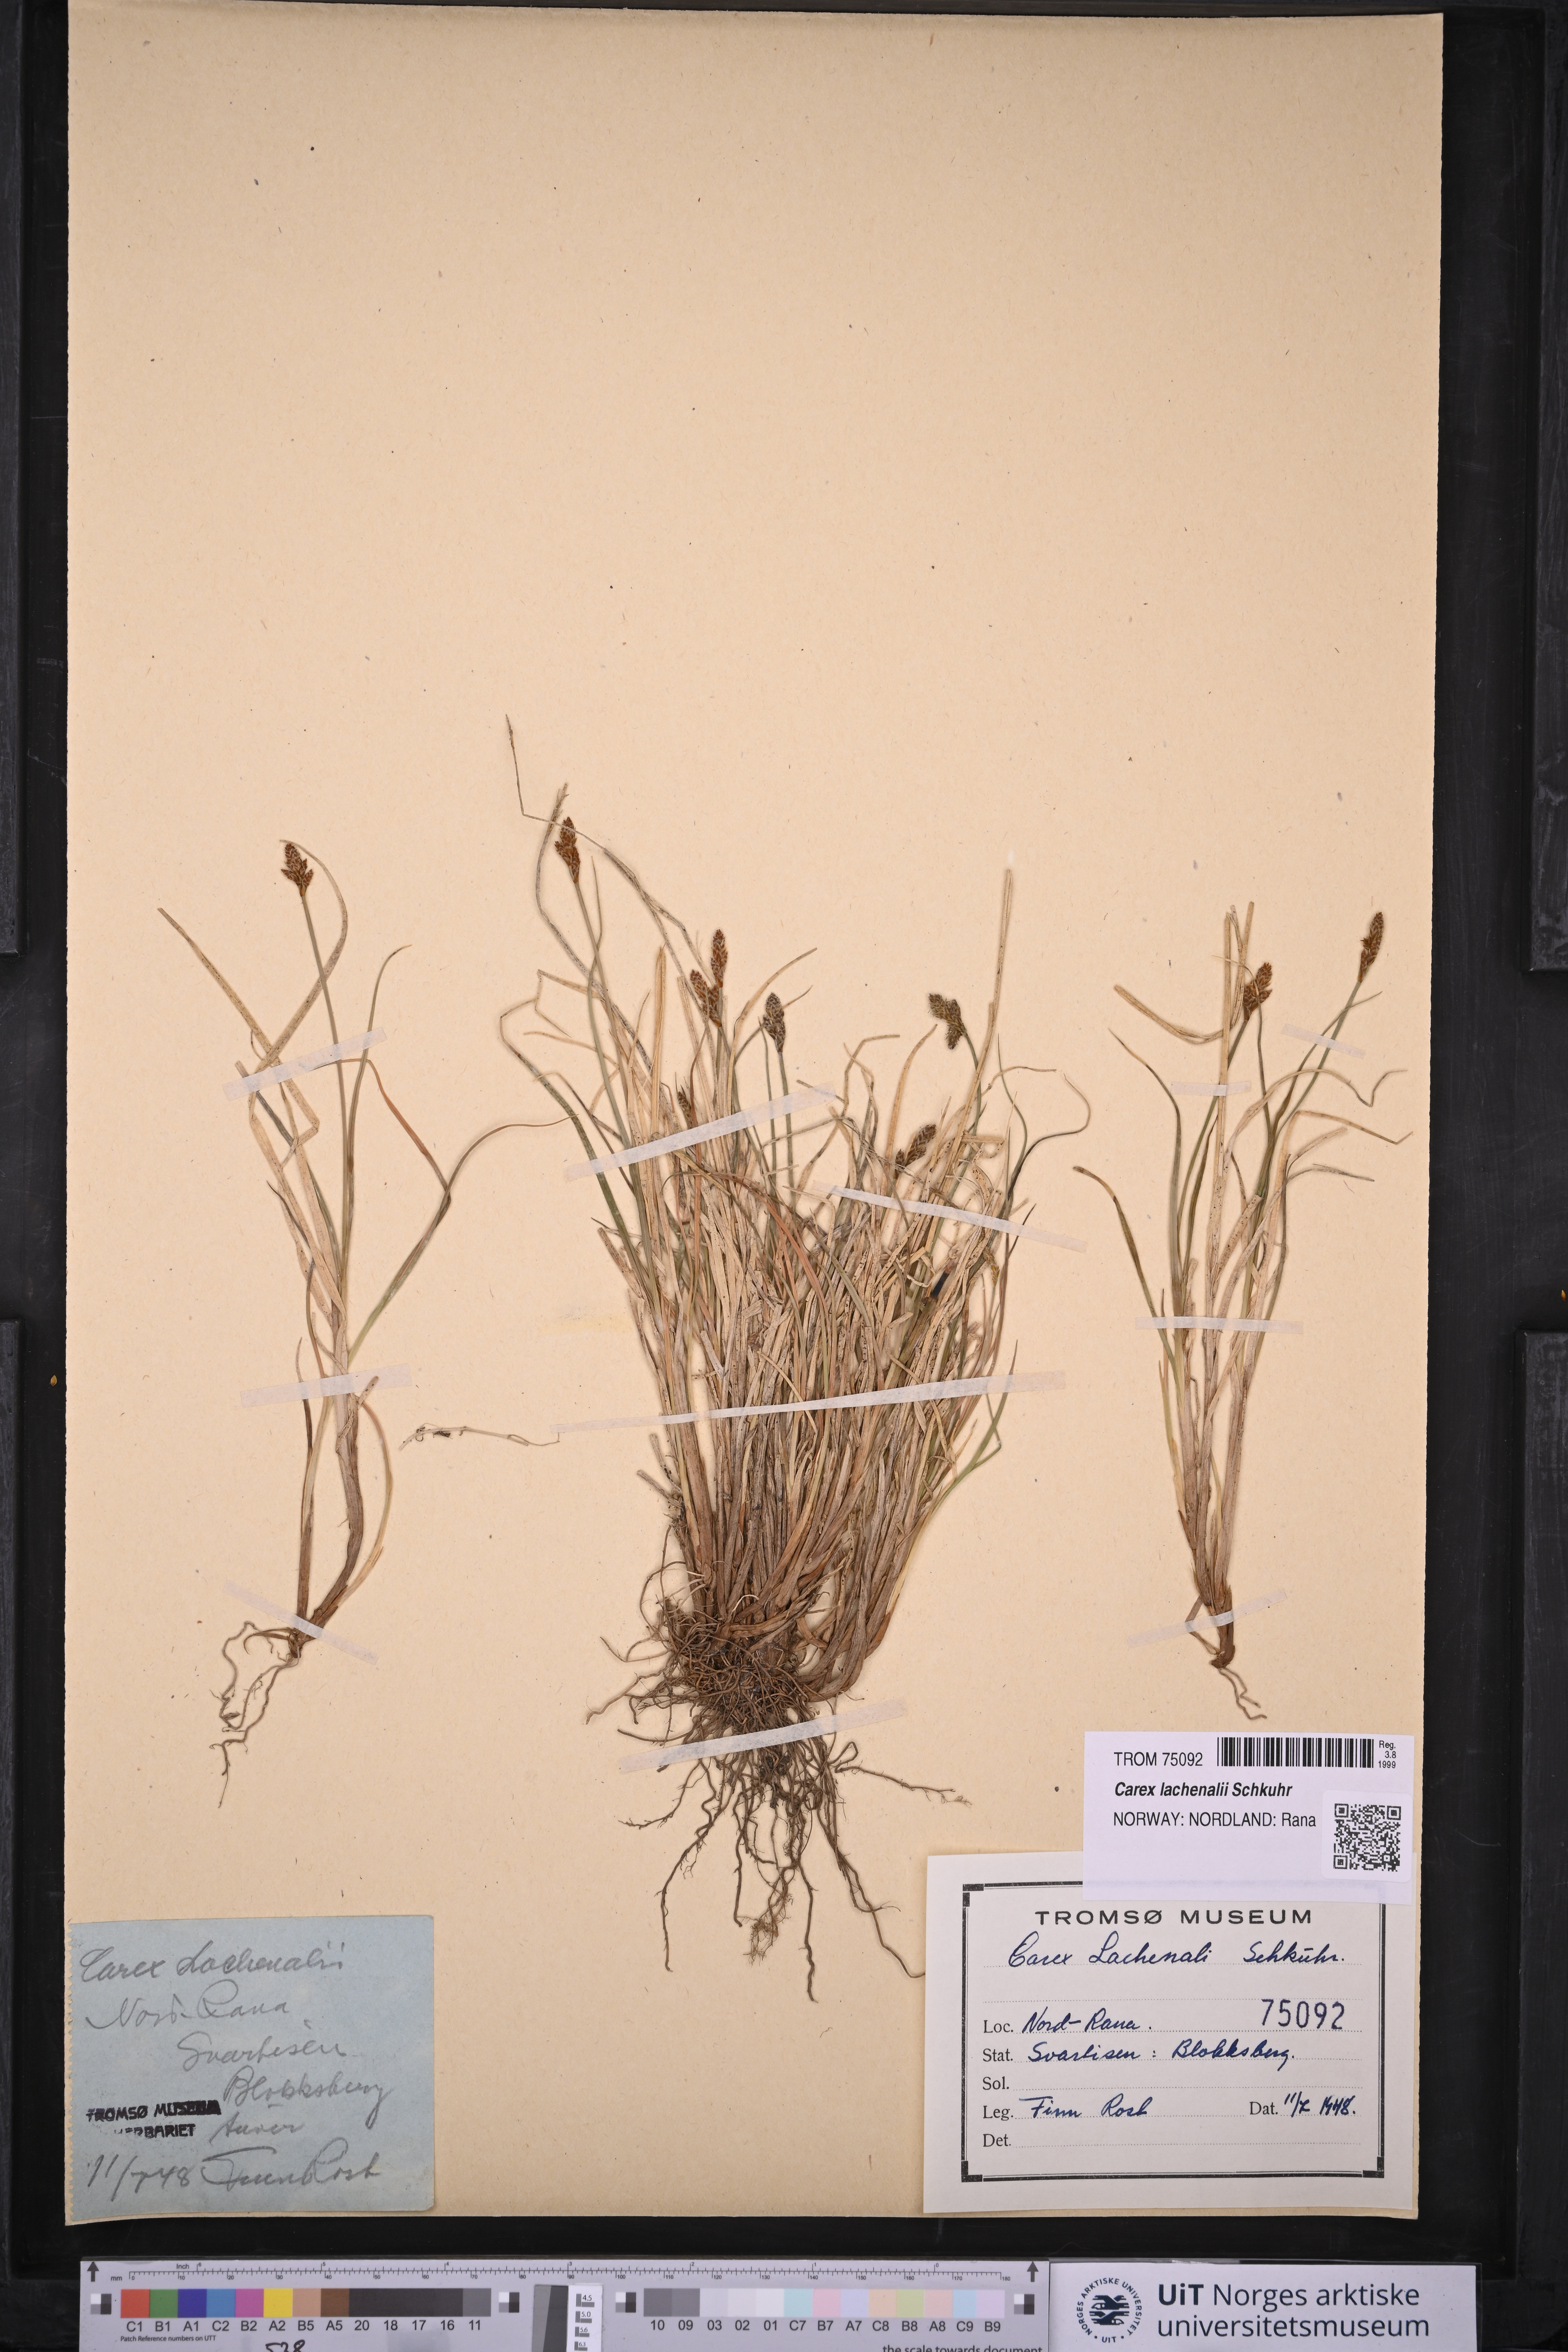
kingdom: Plantae
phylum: Tracheophyta
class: Liliopsida
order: Poales
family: Cyperaceae
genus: Carex
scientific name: Carex lachenalii
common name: Hare's-foot sedge
